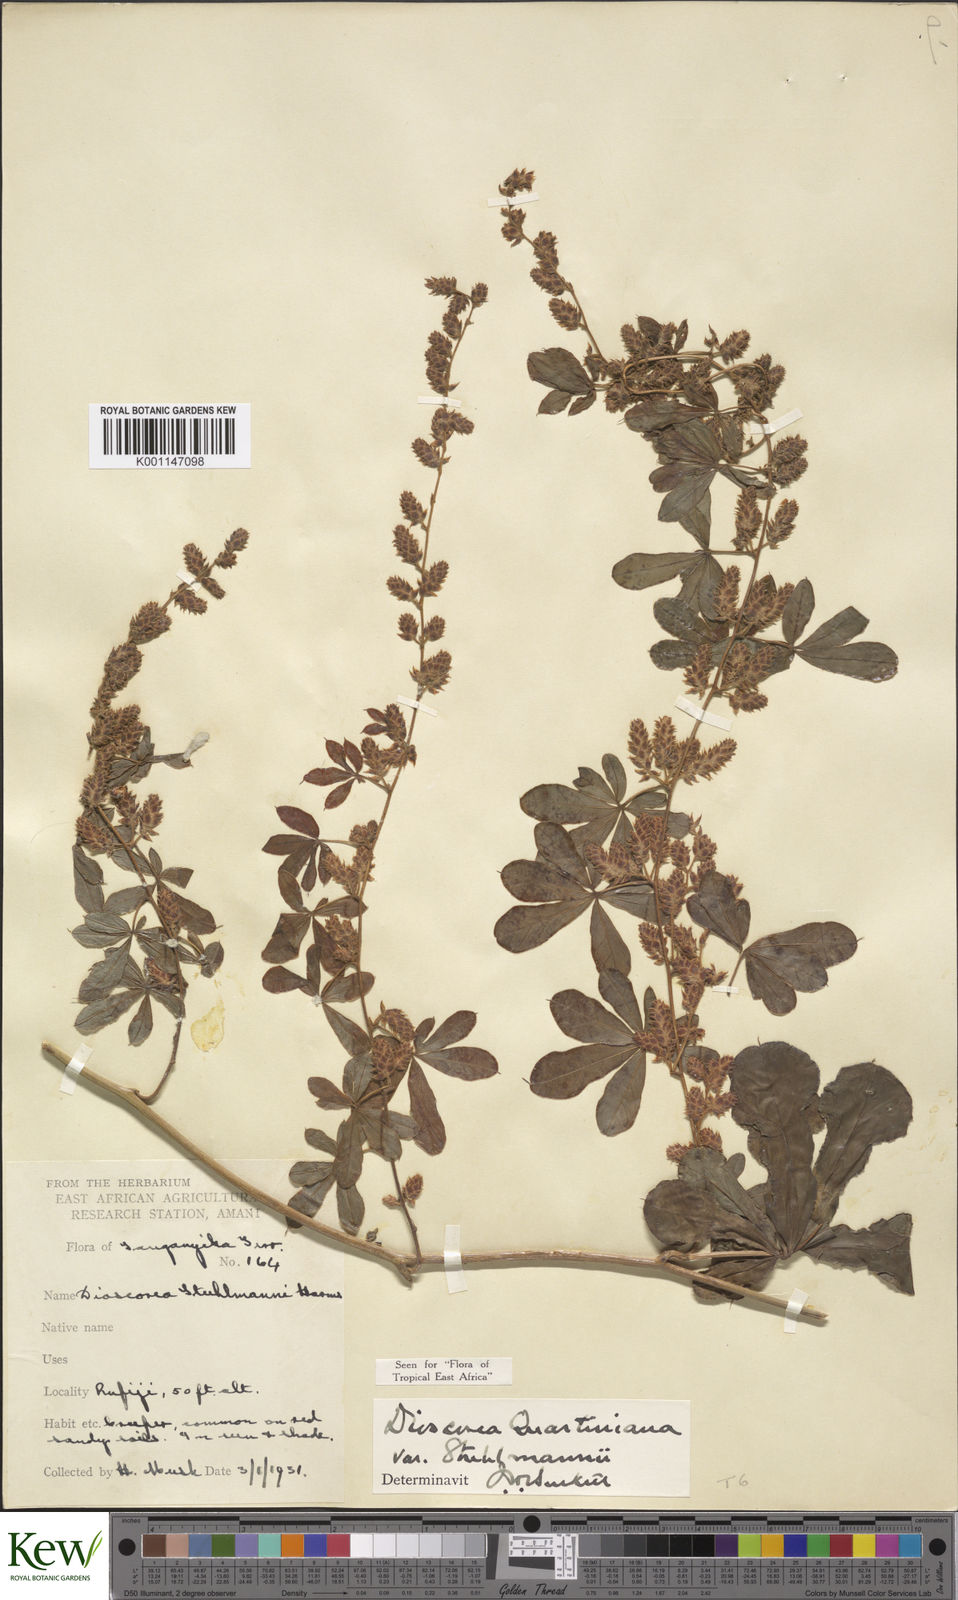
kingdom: Plantae
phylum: Tracheophyta
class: Liliopsida
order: Dioscoreales
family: Dioscoreaceae
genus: Dioscorea
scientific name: Dioscorea quartiniana
